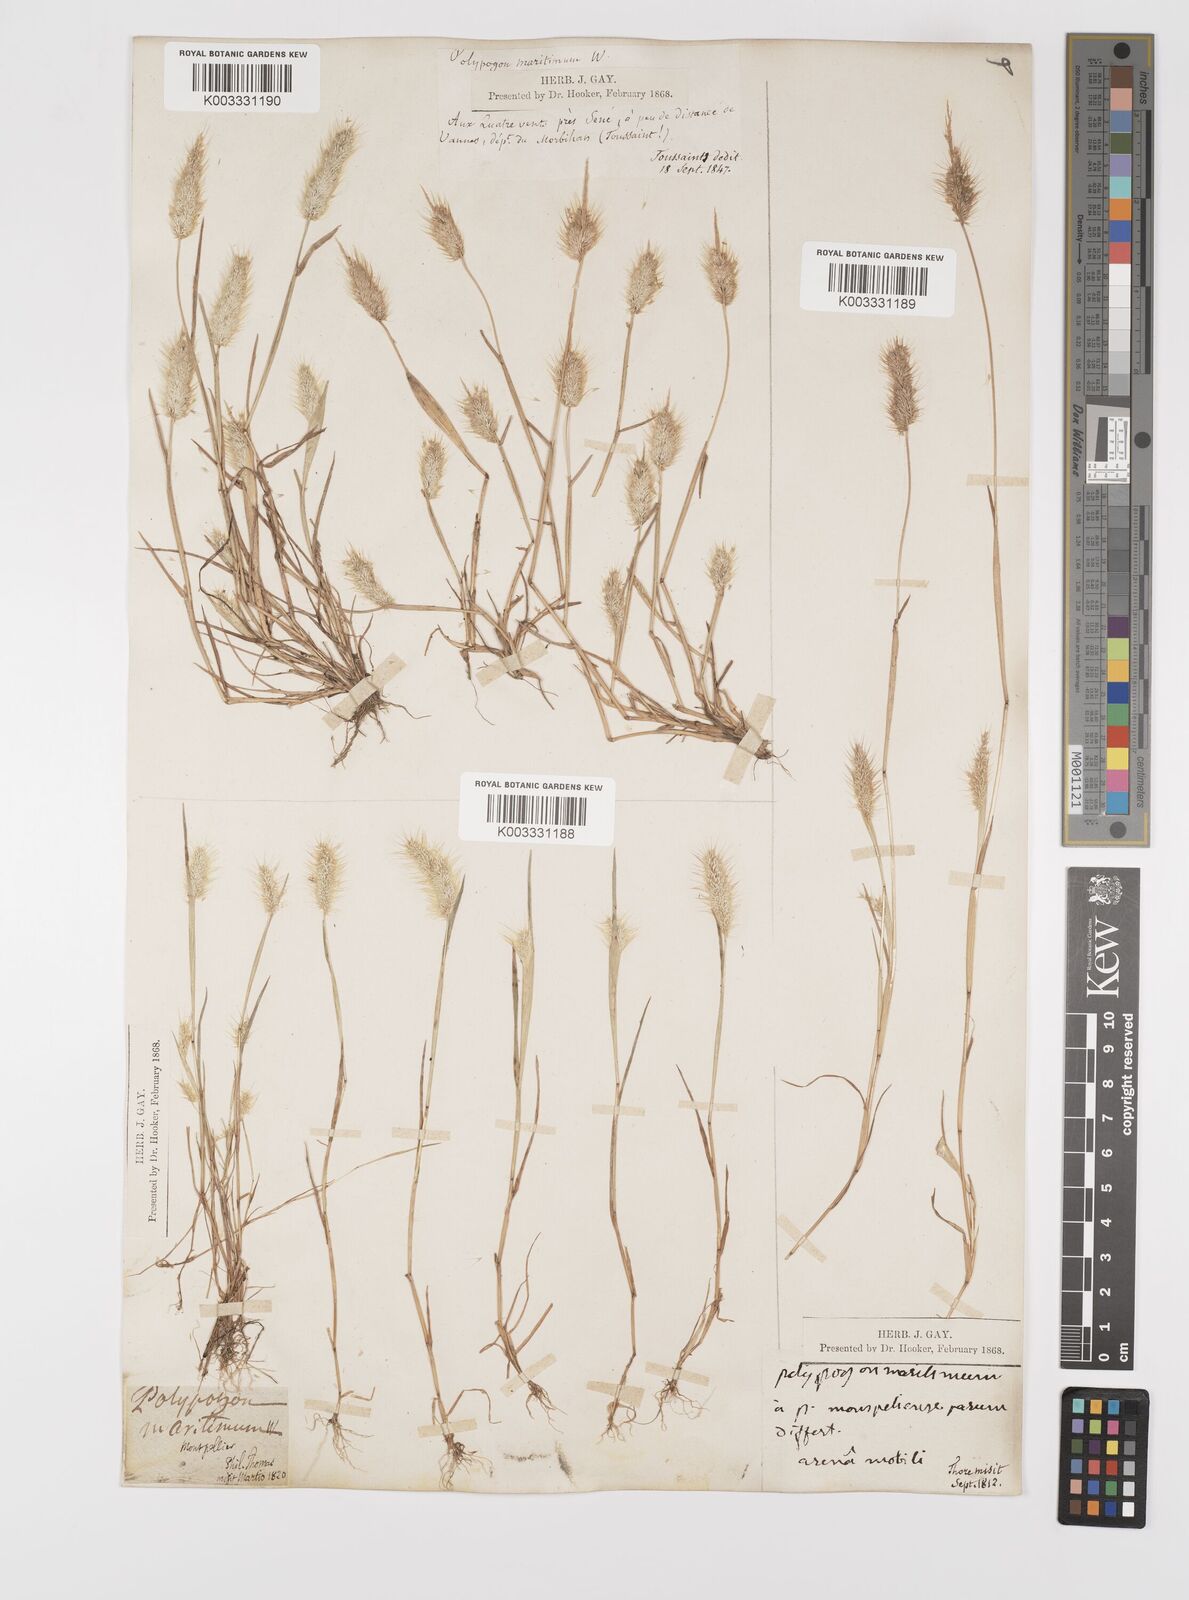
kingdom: Plantae
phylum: Tracheophyta
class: Liliopsida
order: Poales
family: Poaceae
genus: Polypogon
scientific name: Polypogon maritimus
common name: Mediterranean rabbitsfoot grass
